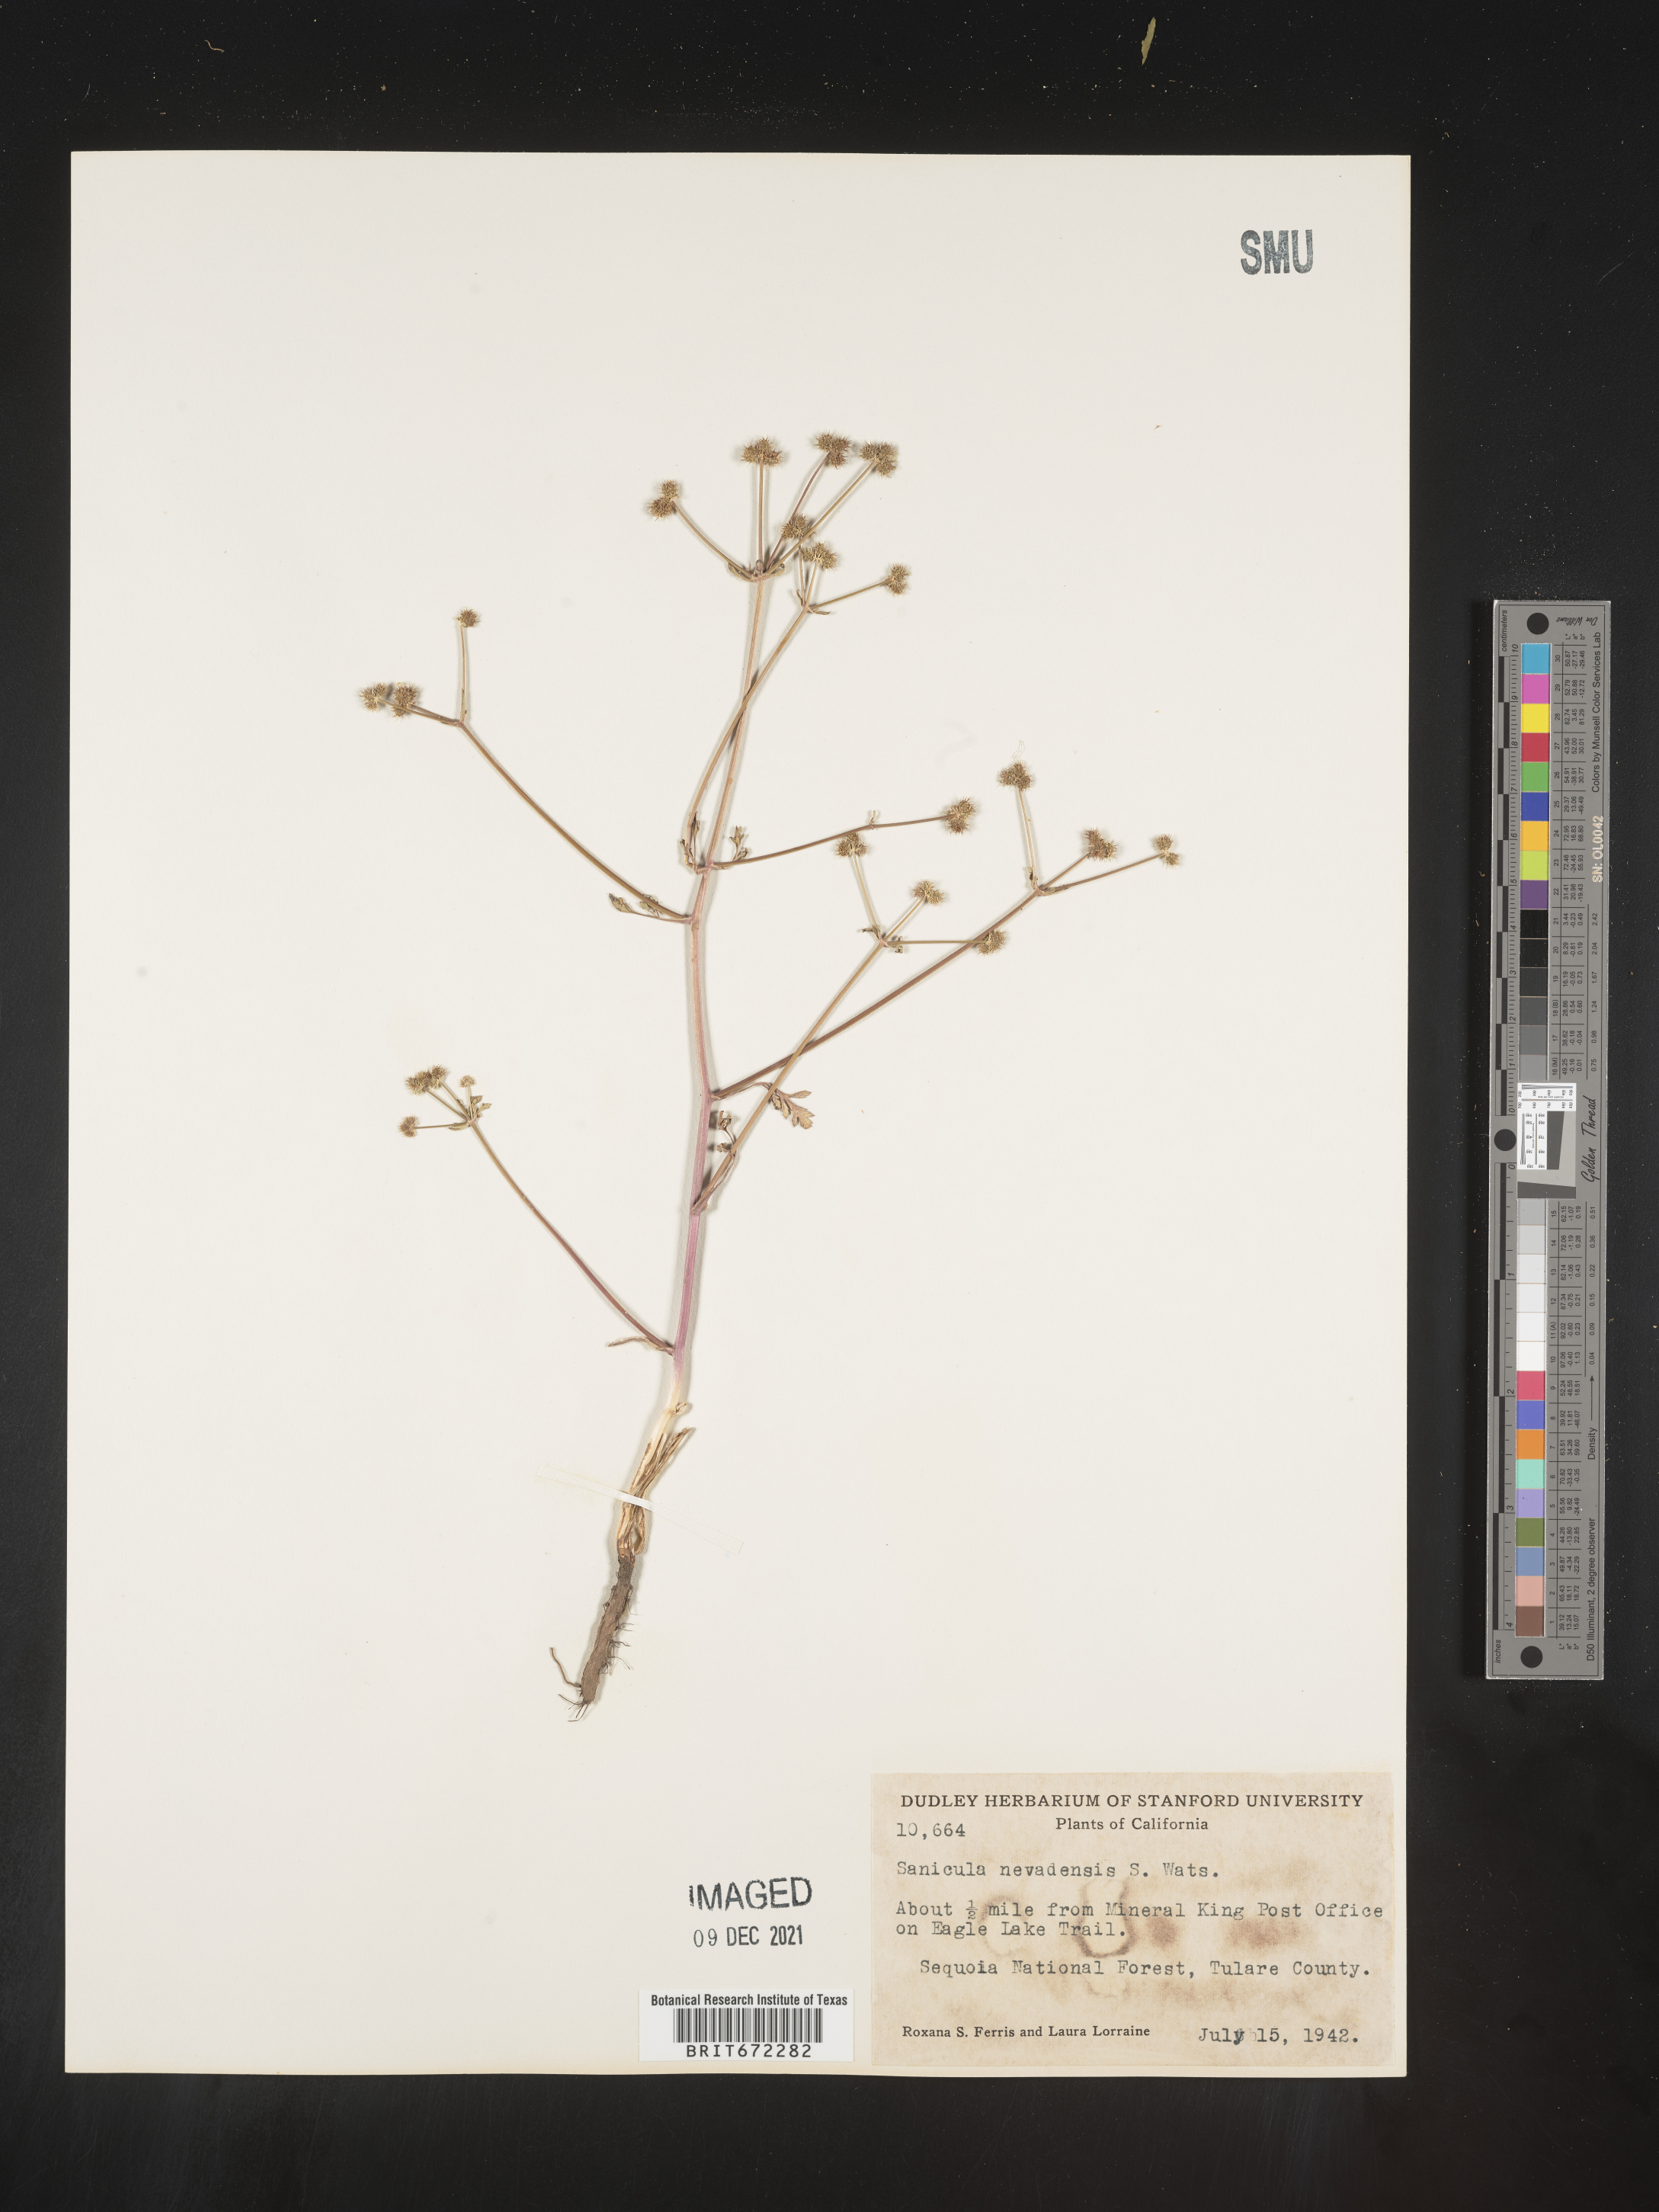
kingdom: Plantae
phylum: Tracheophyta
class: Magnoliopsida
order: Apiales
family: Apiaceae
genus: Sanicula
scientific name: Sanicula
